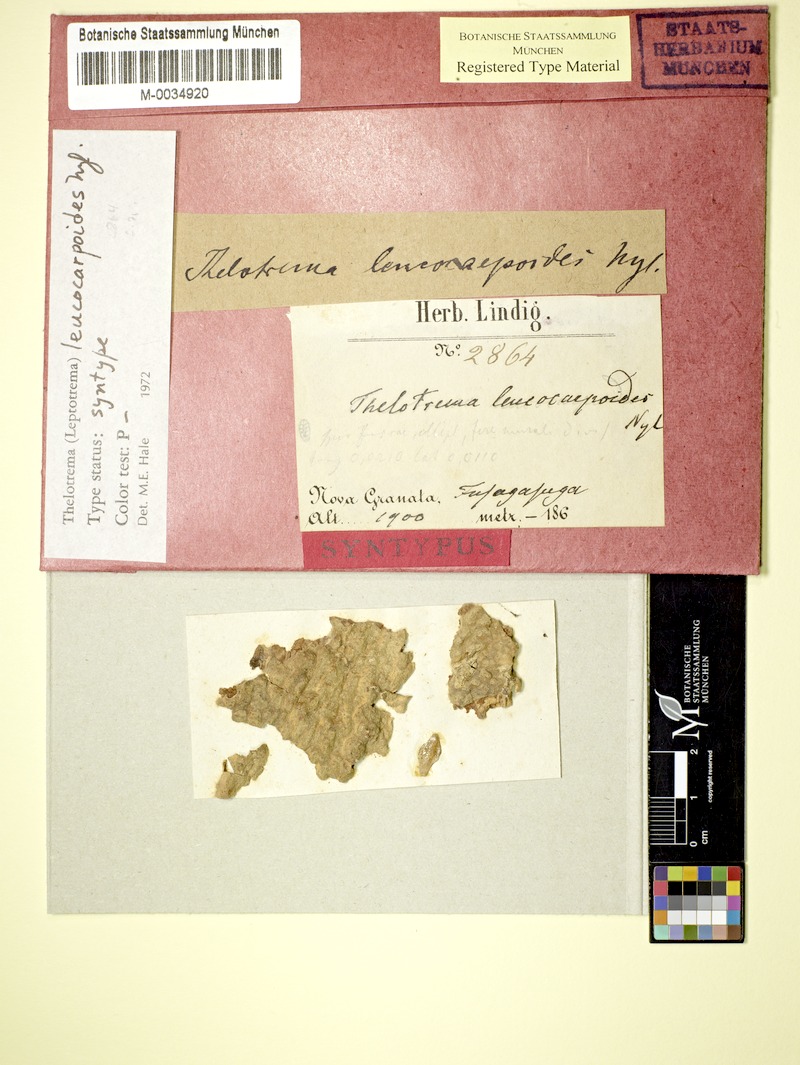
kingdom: Fungi
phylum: Ascomycota
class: Lecanoromycetes
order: Ostropales
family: Graphidaceae
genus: Ocellularia
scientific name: Ocellularia leucocarpoides
